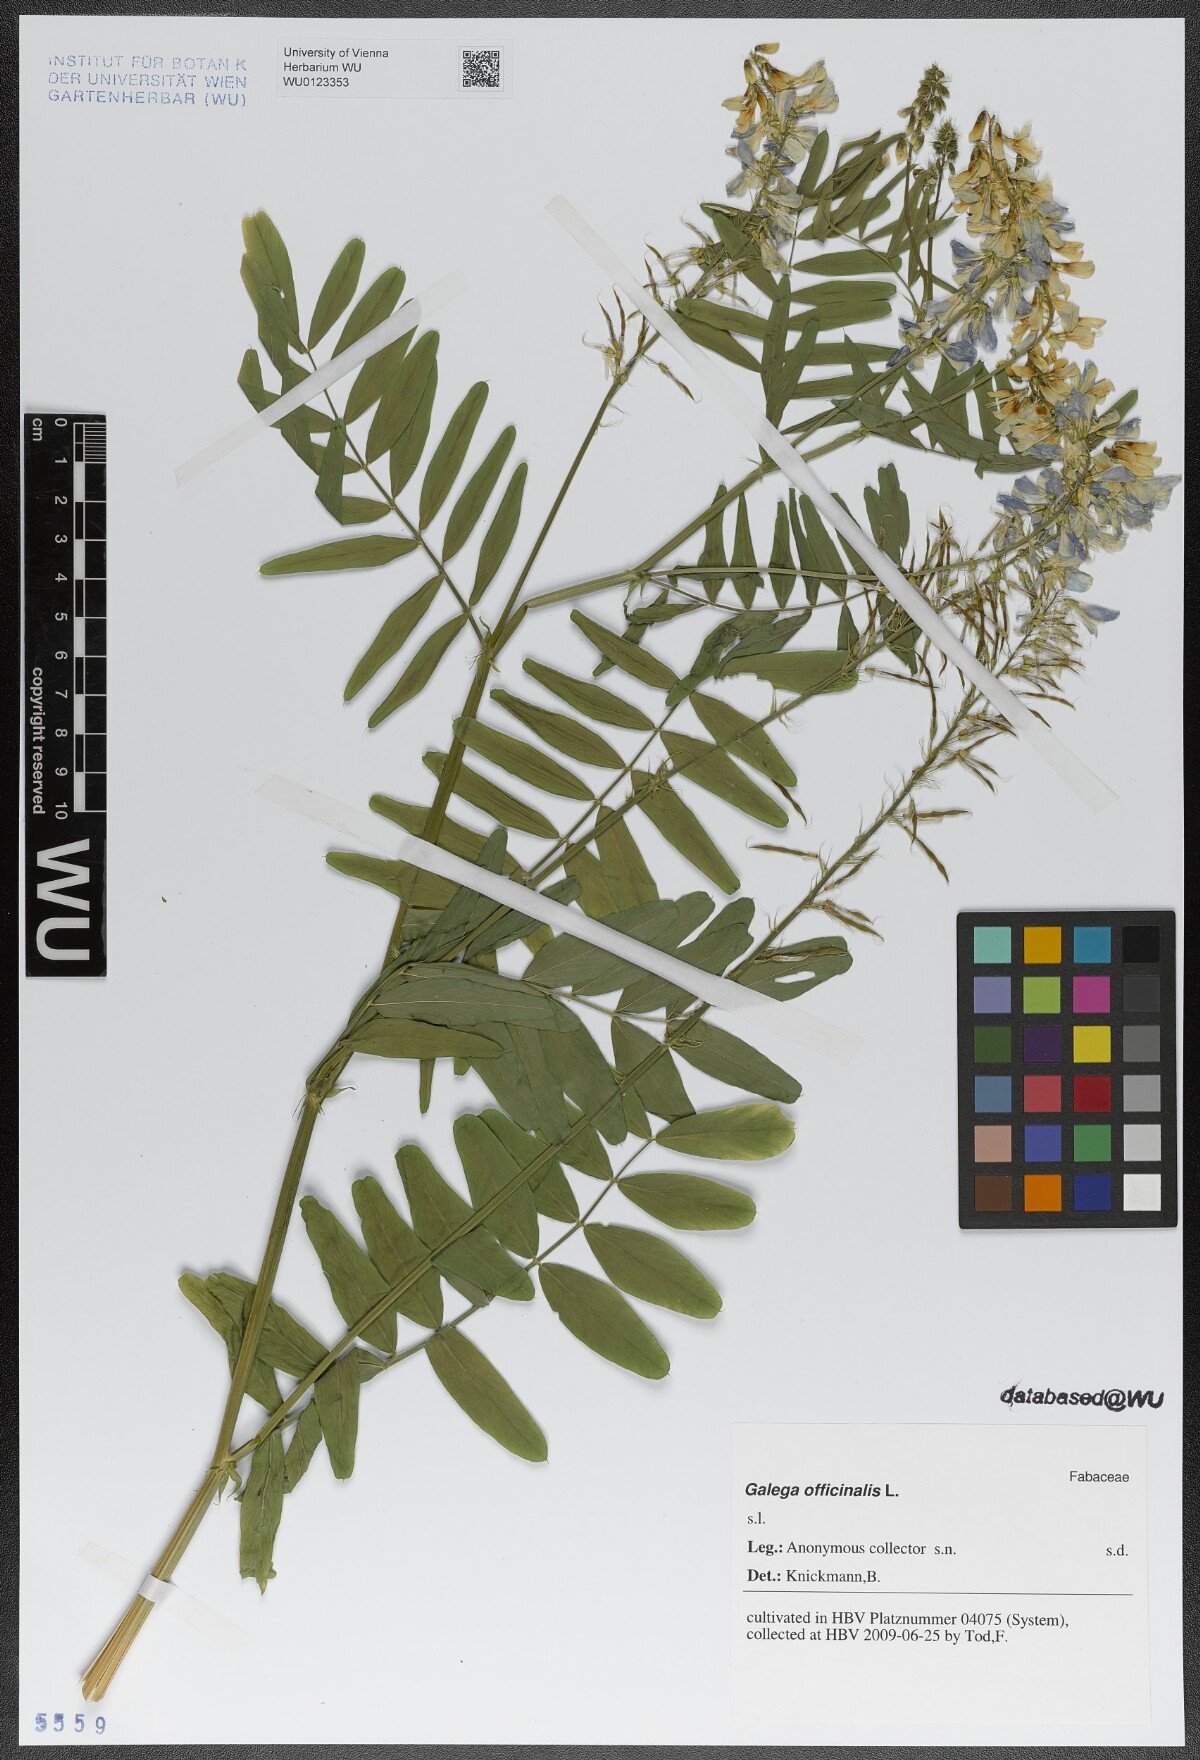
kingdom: Plantae
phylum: Tracheophyta
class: Magnoliopsida
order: Fabales
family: Fabaceae
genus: Galega
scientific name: Galega officinalis
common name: Goat's-rue
